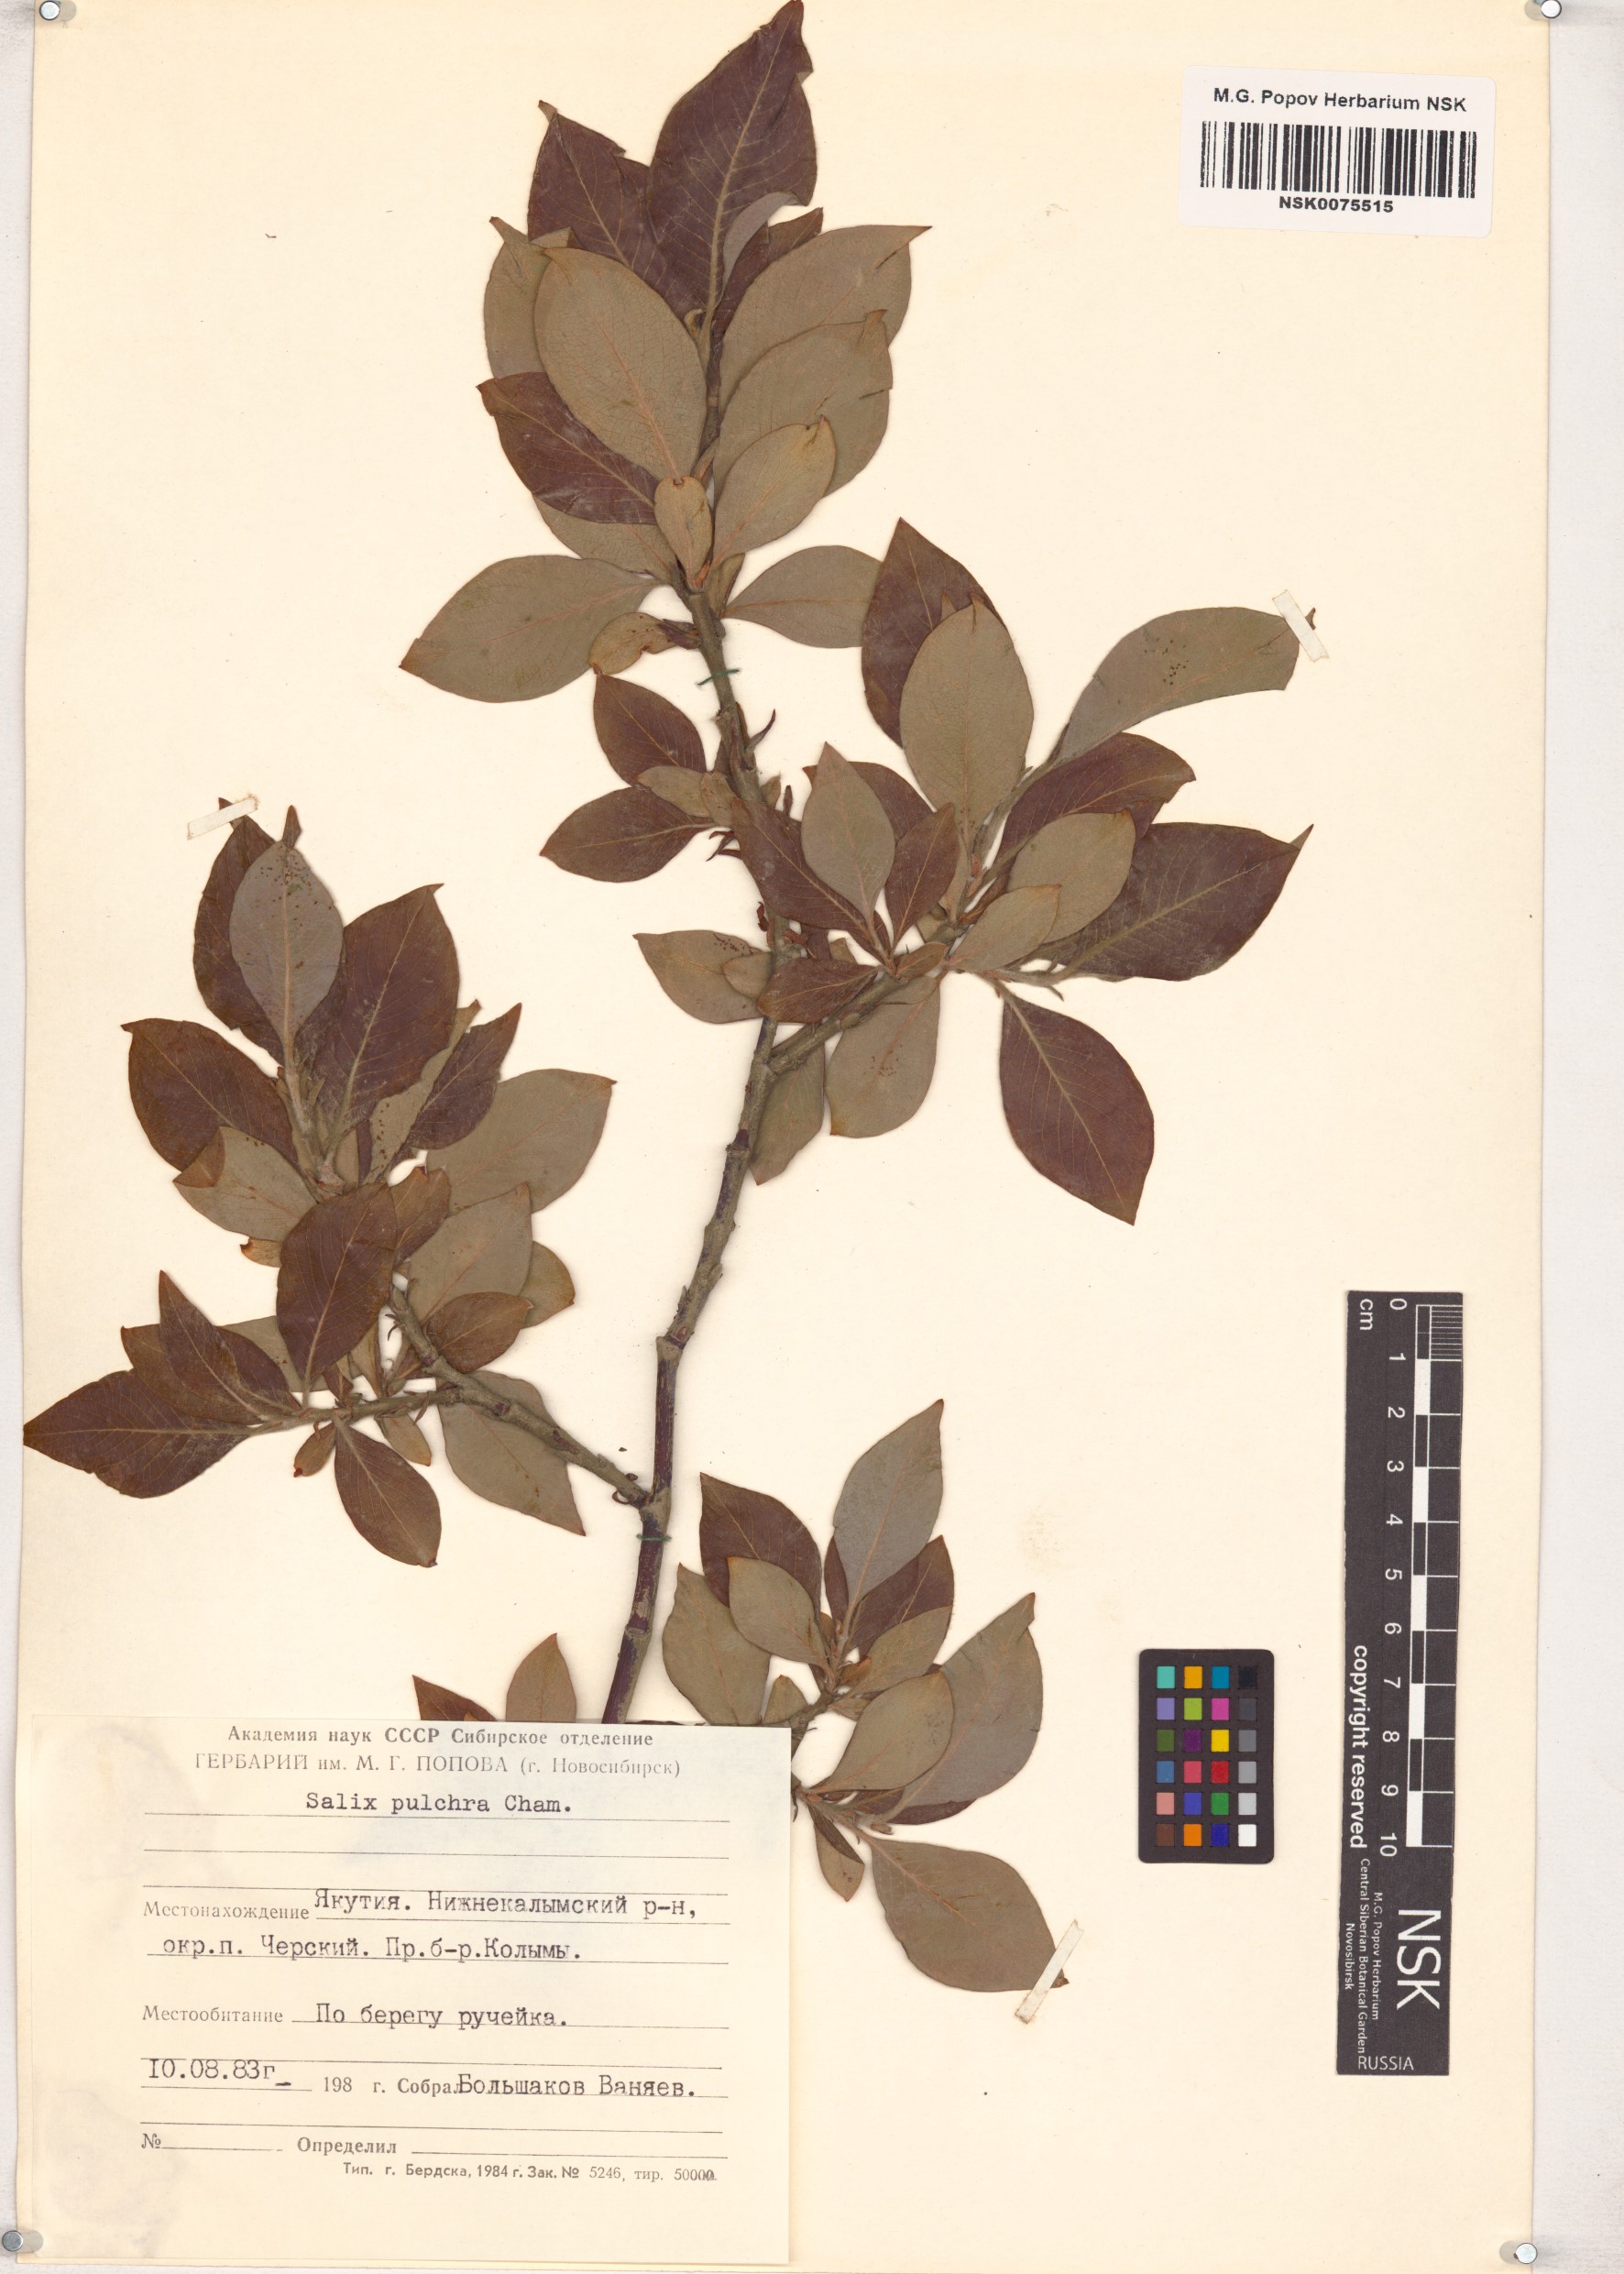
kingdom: Plantae
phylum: Tracheophyta
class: Magnoliopsida
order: Malpighiales
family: Salicaceae
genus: Salix
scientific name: Salix pulchra
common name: Diamond-leaved willow
